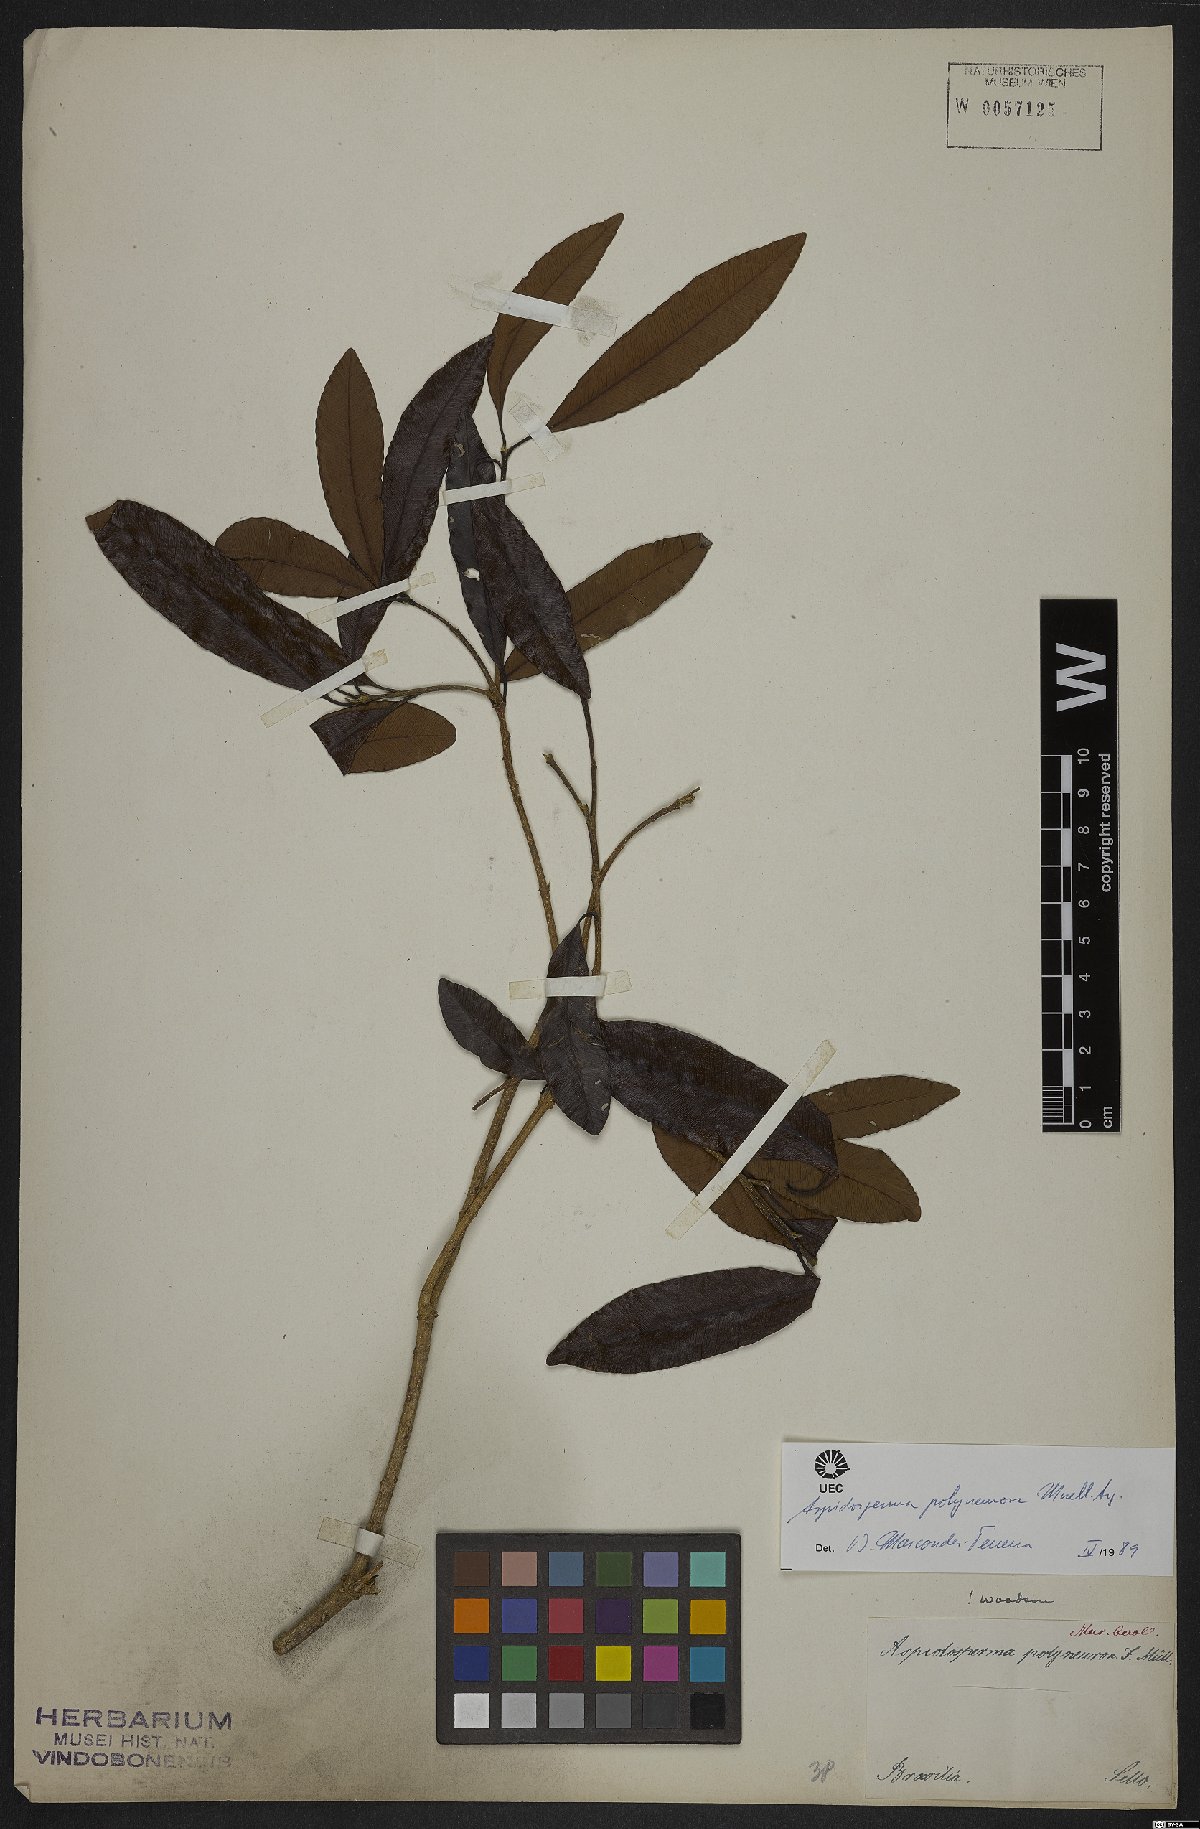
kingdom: Plantae
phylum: Tracheophyta
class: Magnoliopsida
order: Gentianales
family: Apocynaceae
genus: Aspidosperma
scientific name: Aspidosperma polyneuron
